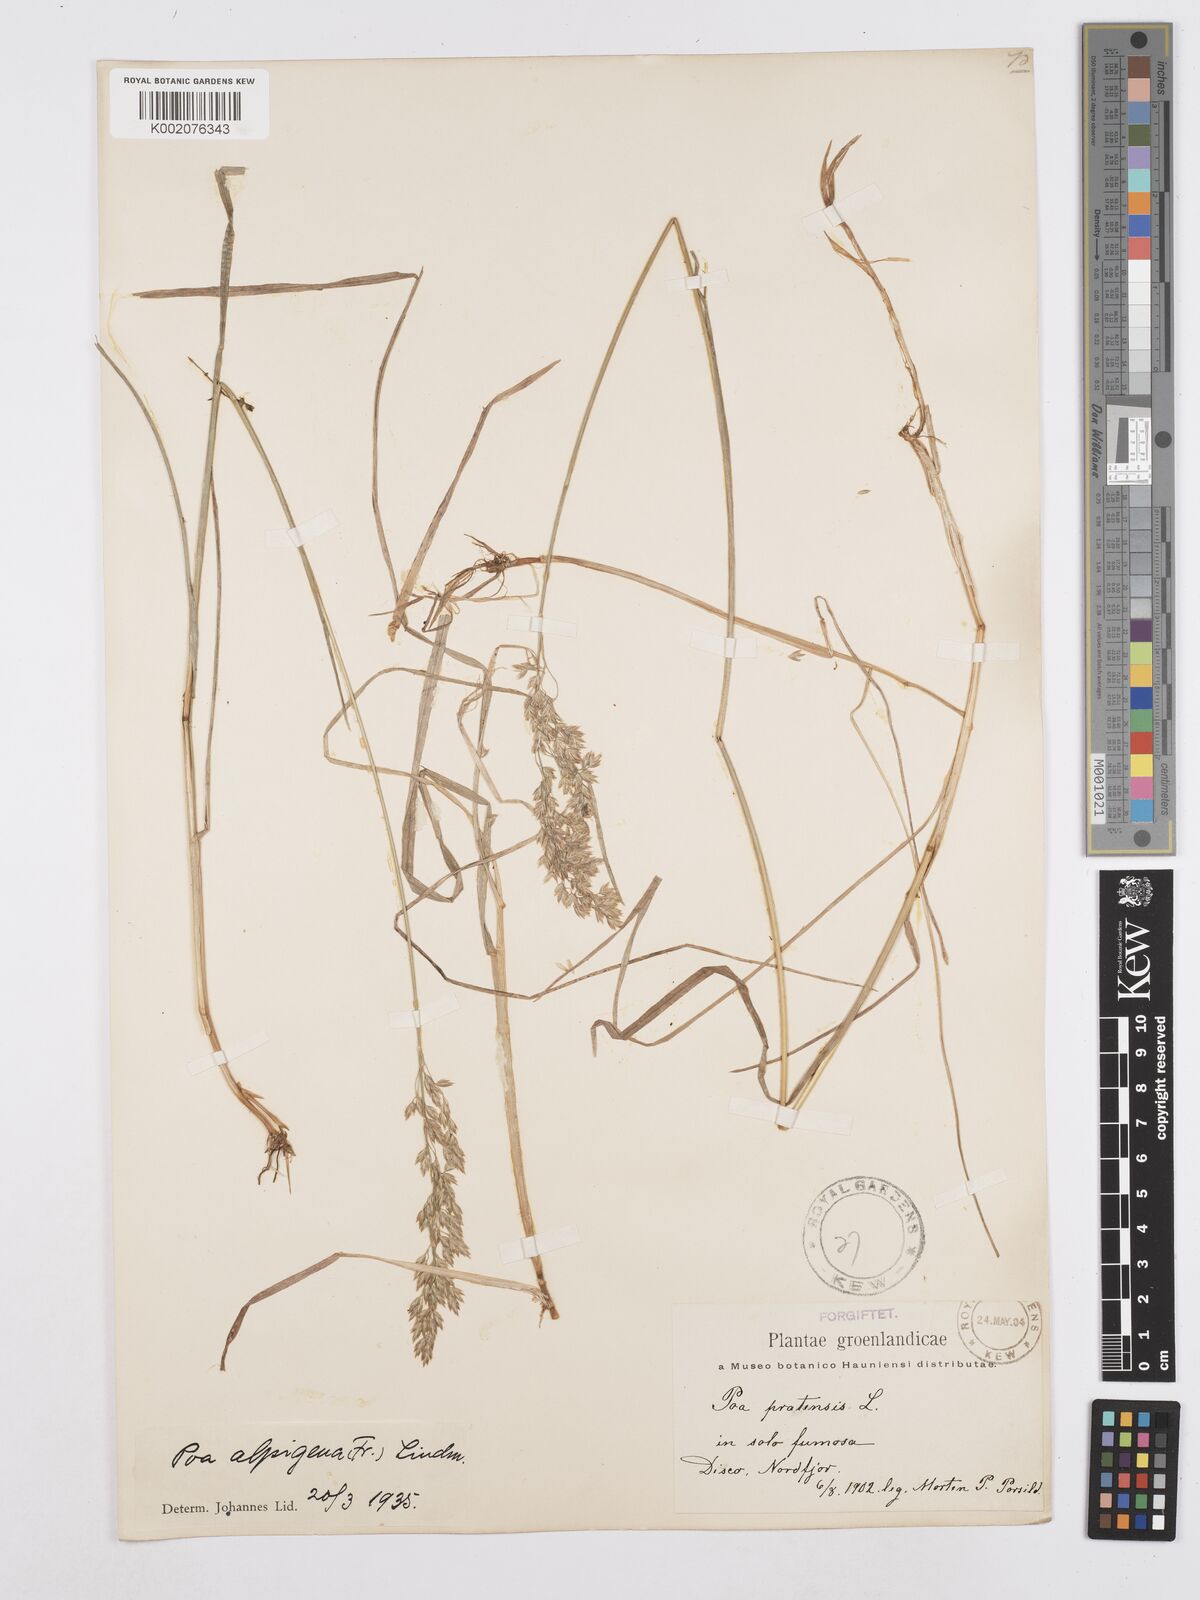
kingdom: Plantae
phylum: Tracheophyta
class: Liliopsida
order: Poales
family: Poaceae
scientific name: Poaceae
